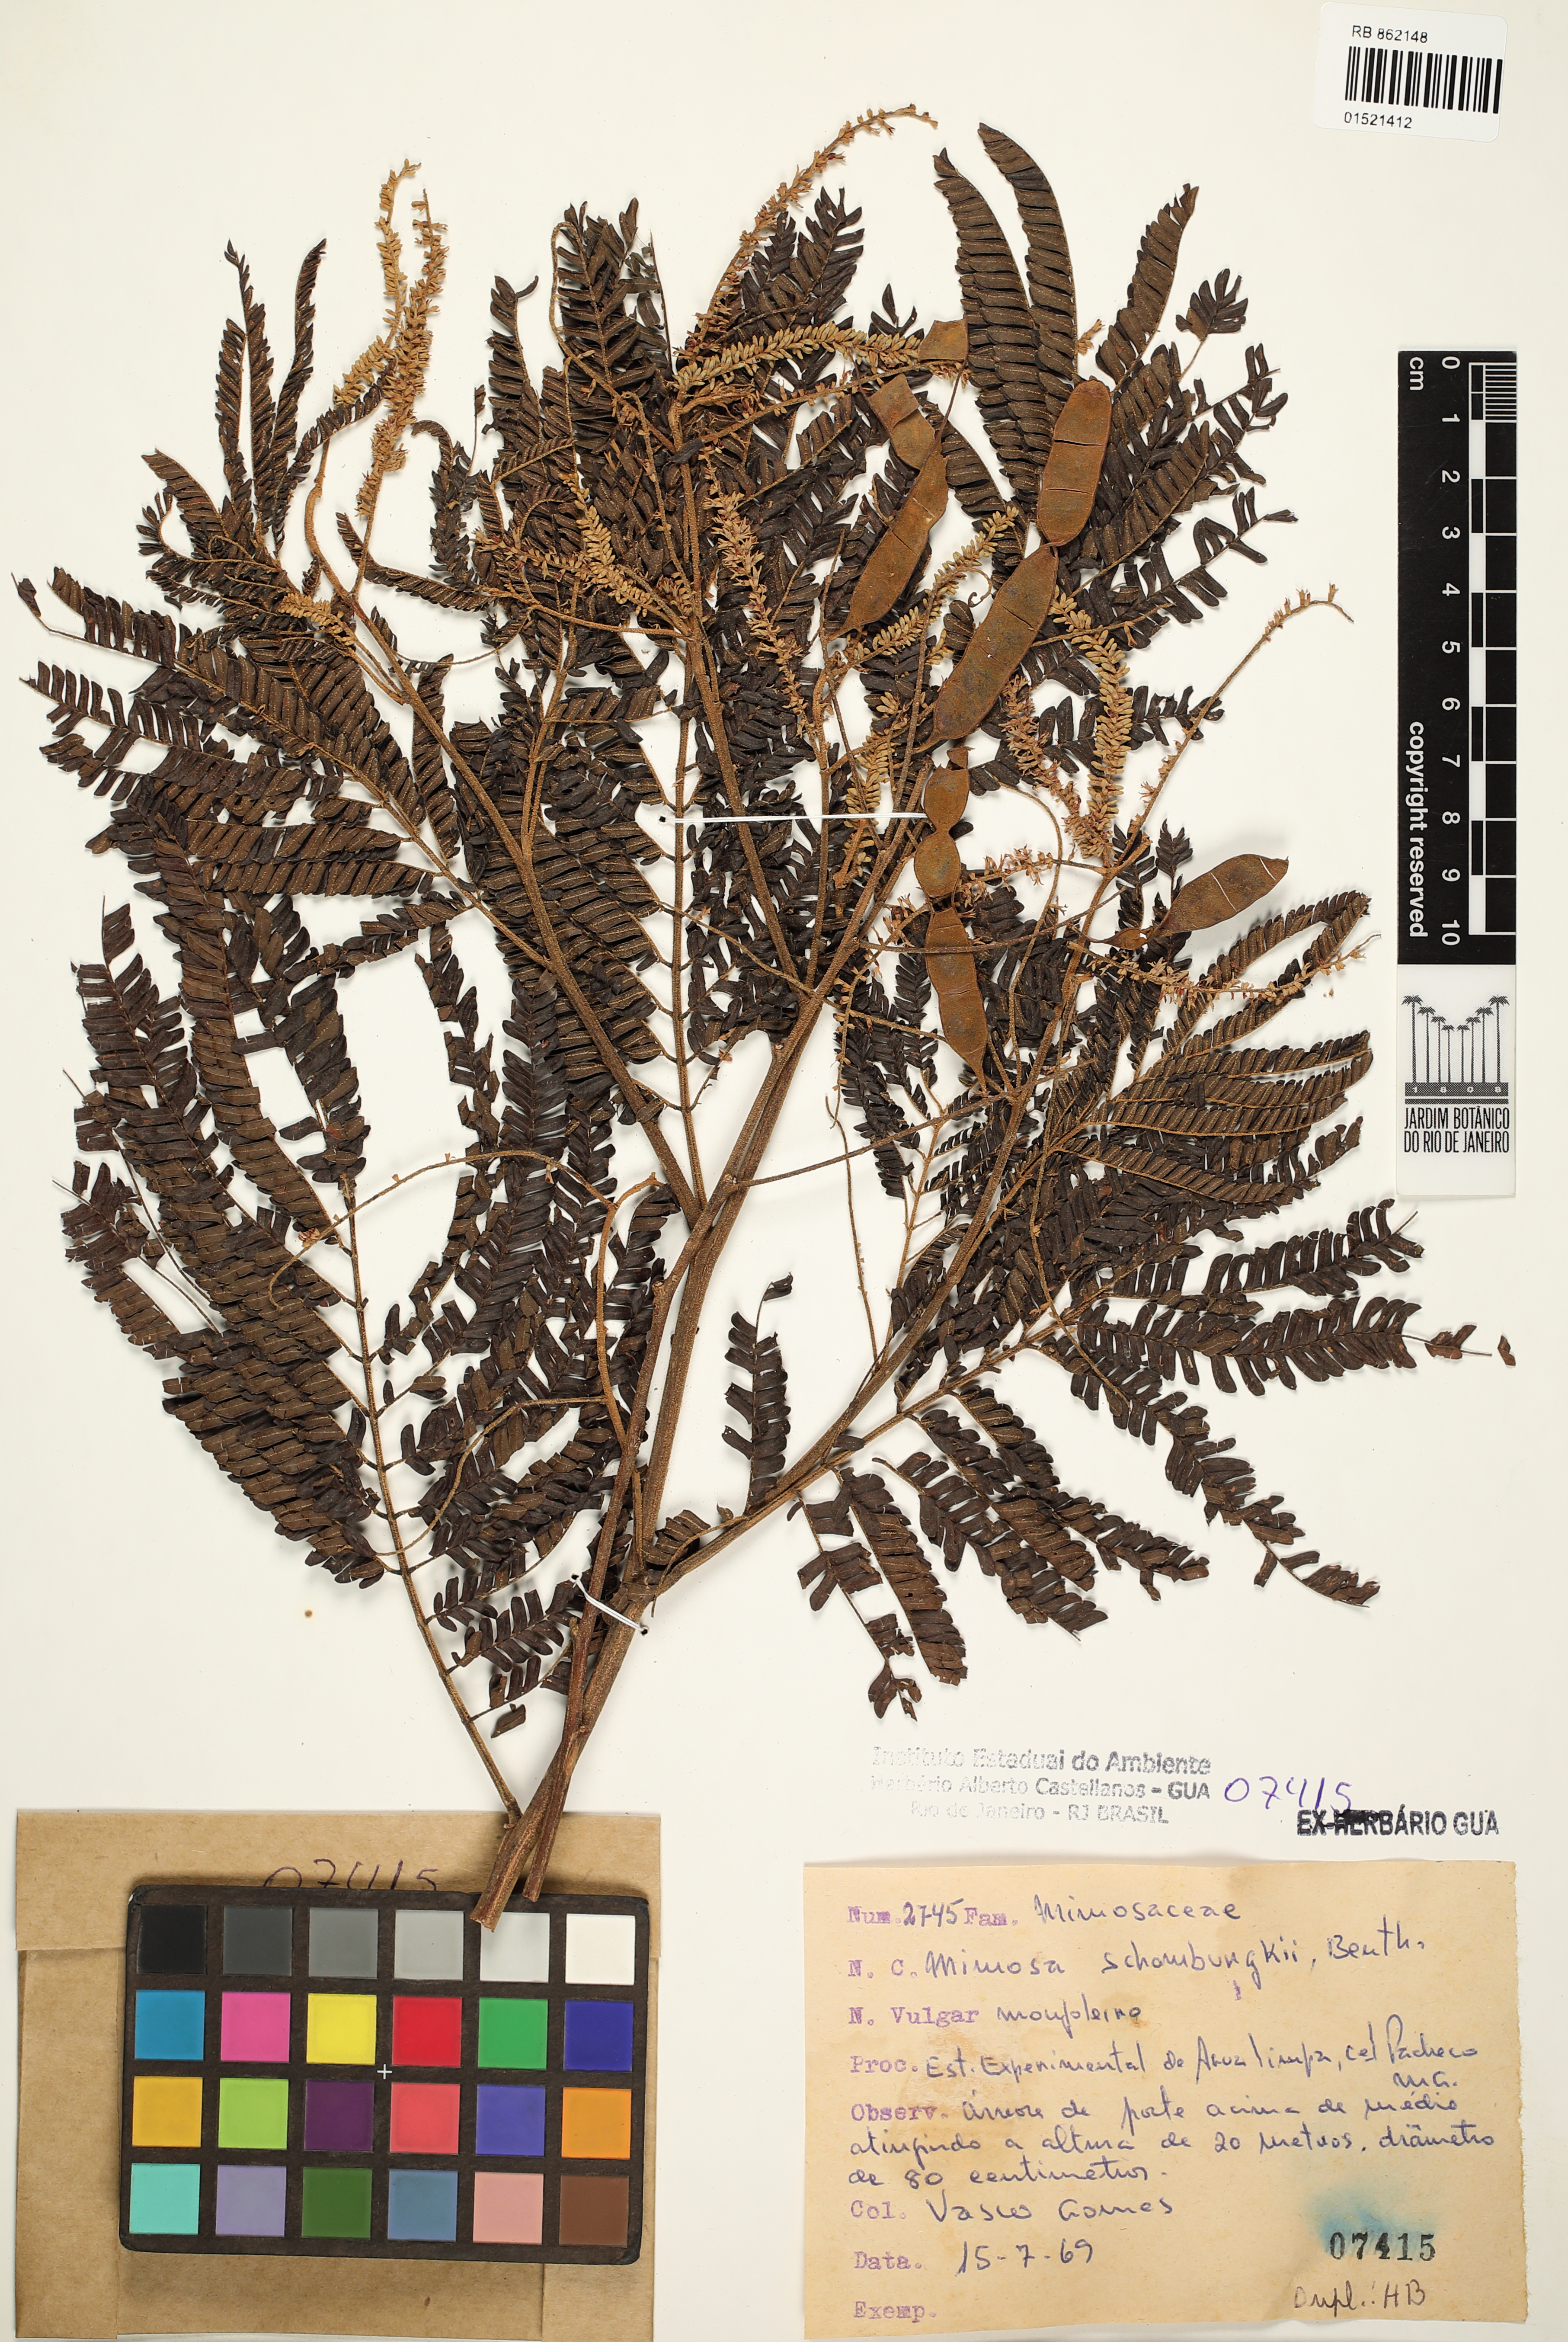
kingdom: Plantae
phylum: Tracheophyta
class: Magnoliopsida
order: Fabales
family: Fabaceae
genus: Mimosa
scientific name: Mimosa schomburgkii
